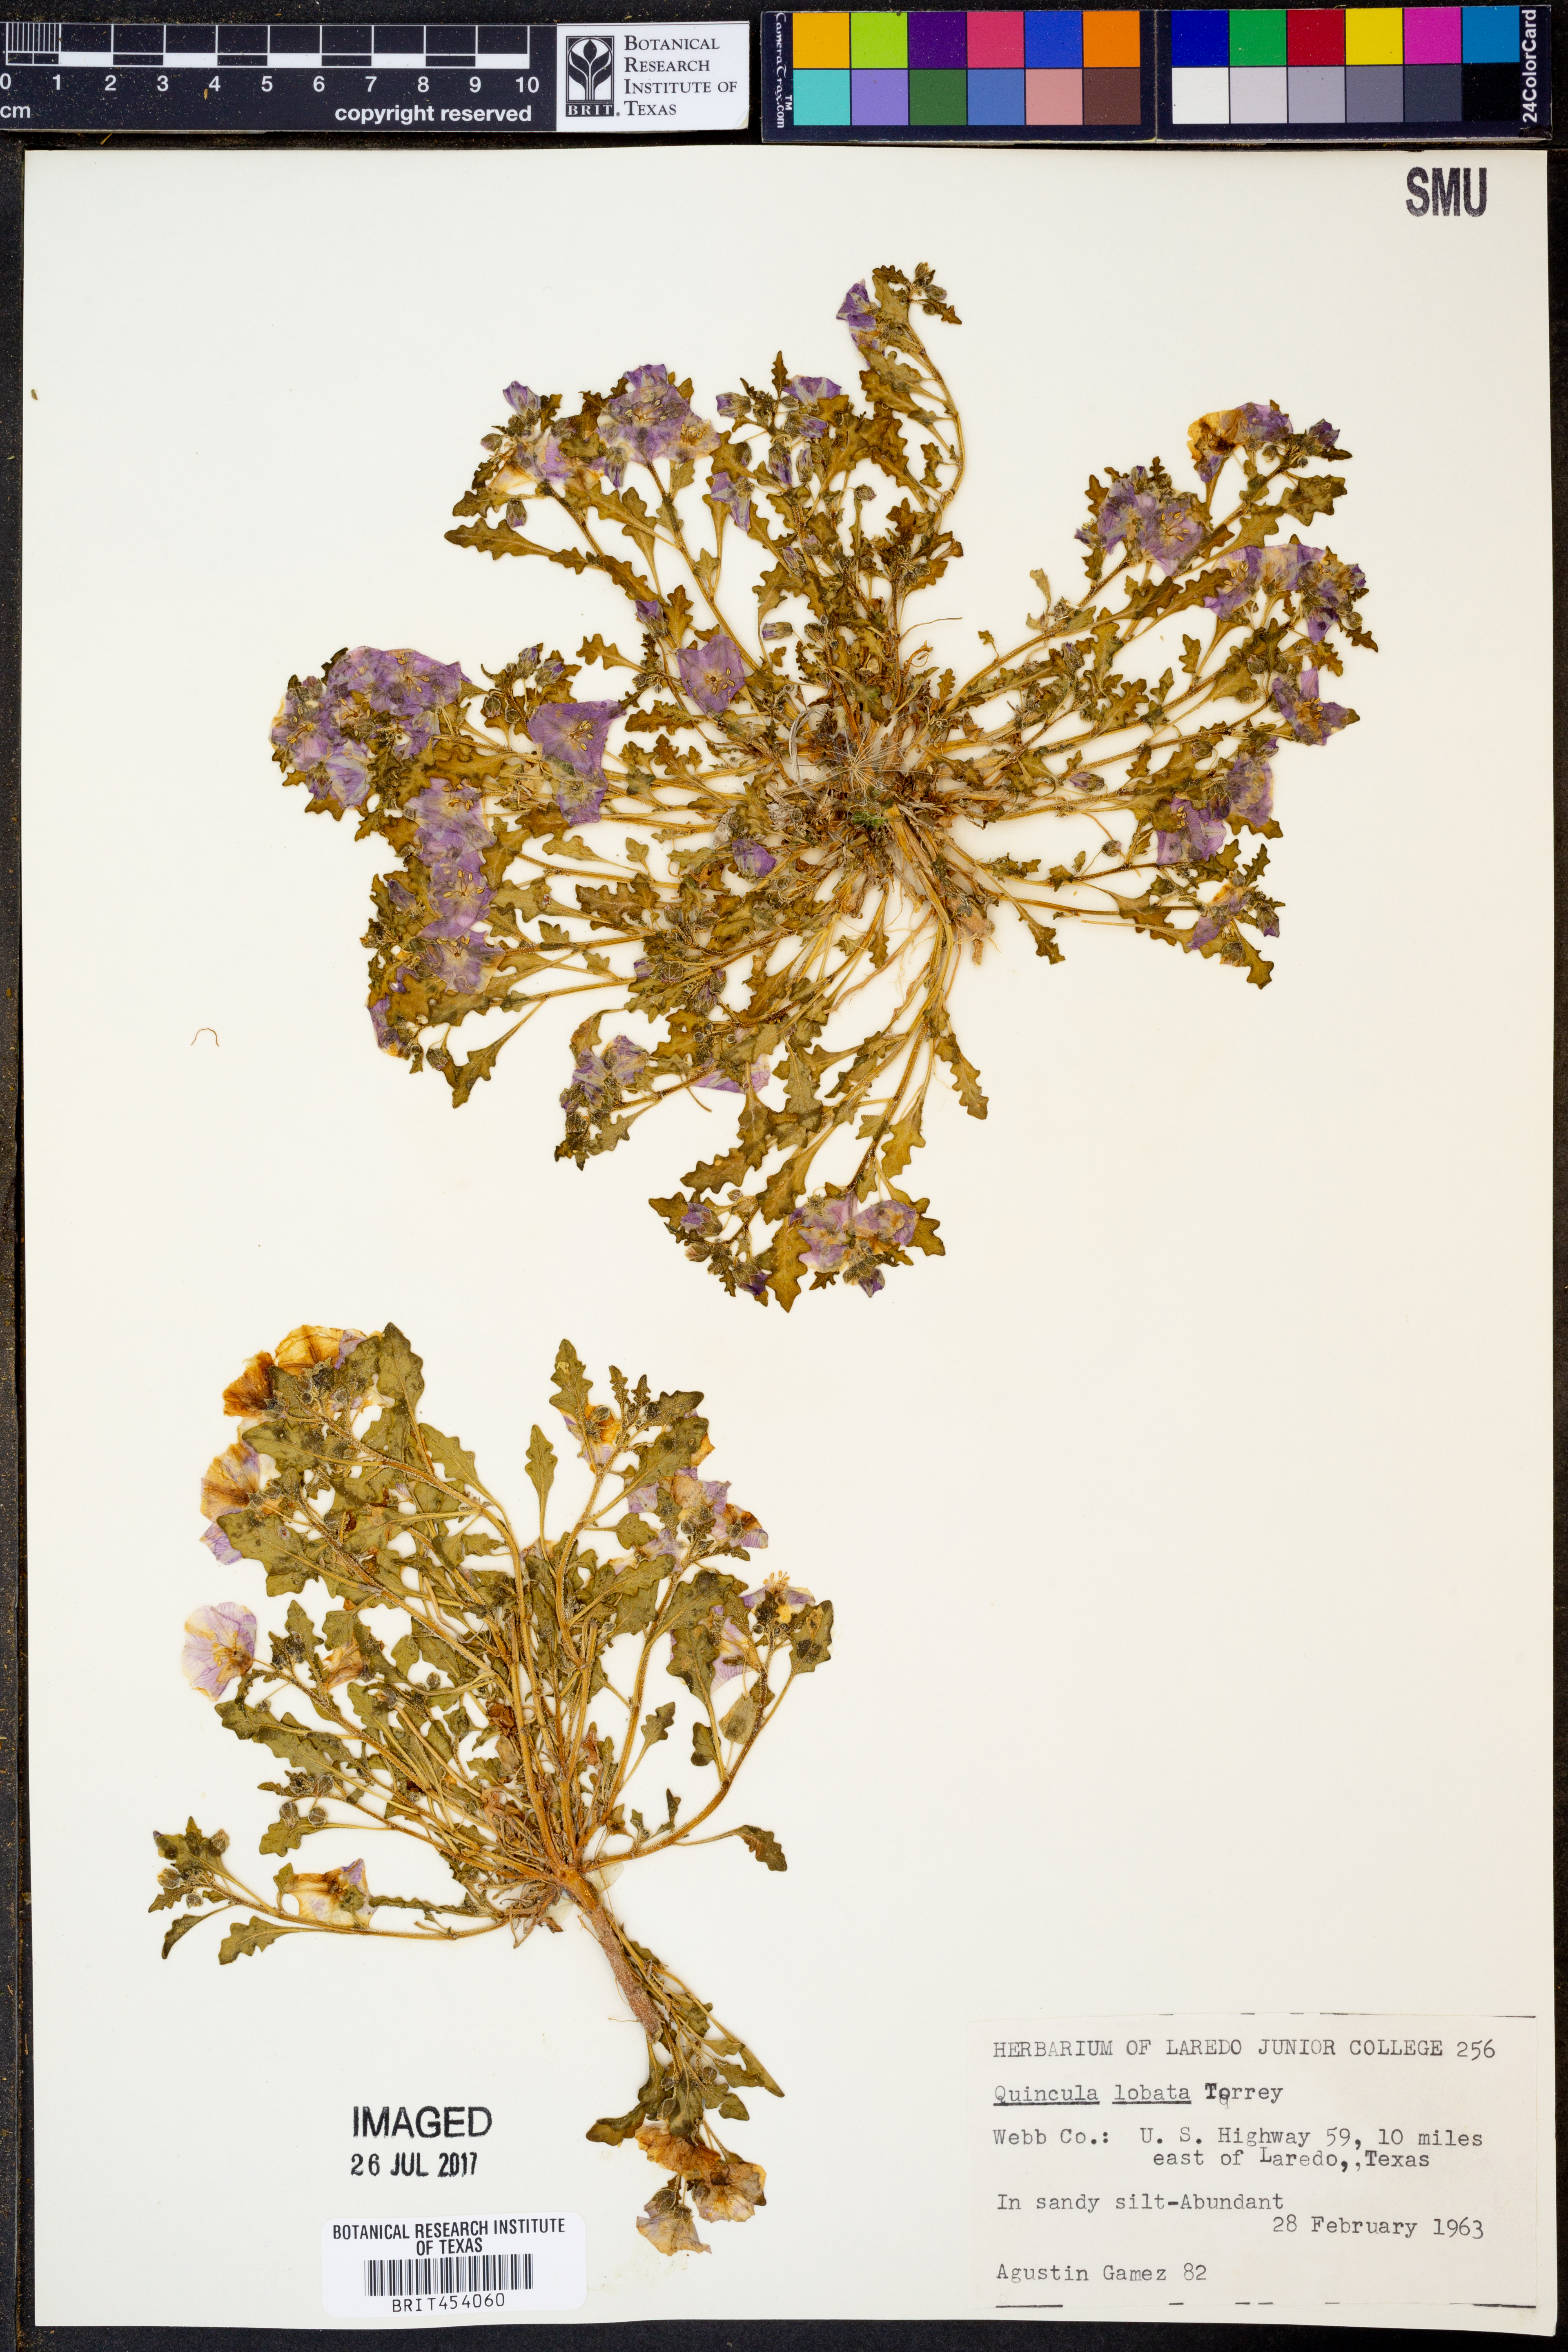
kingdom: Plantae
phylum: Tracheophyta
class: Magnoliopsida
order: Solanales
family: Solanaceae
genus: Quincula
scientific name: Quincula lobata
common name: Purple-ground-cherry
